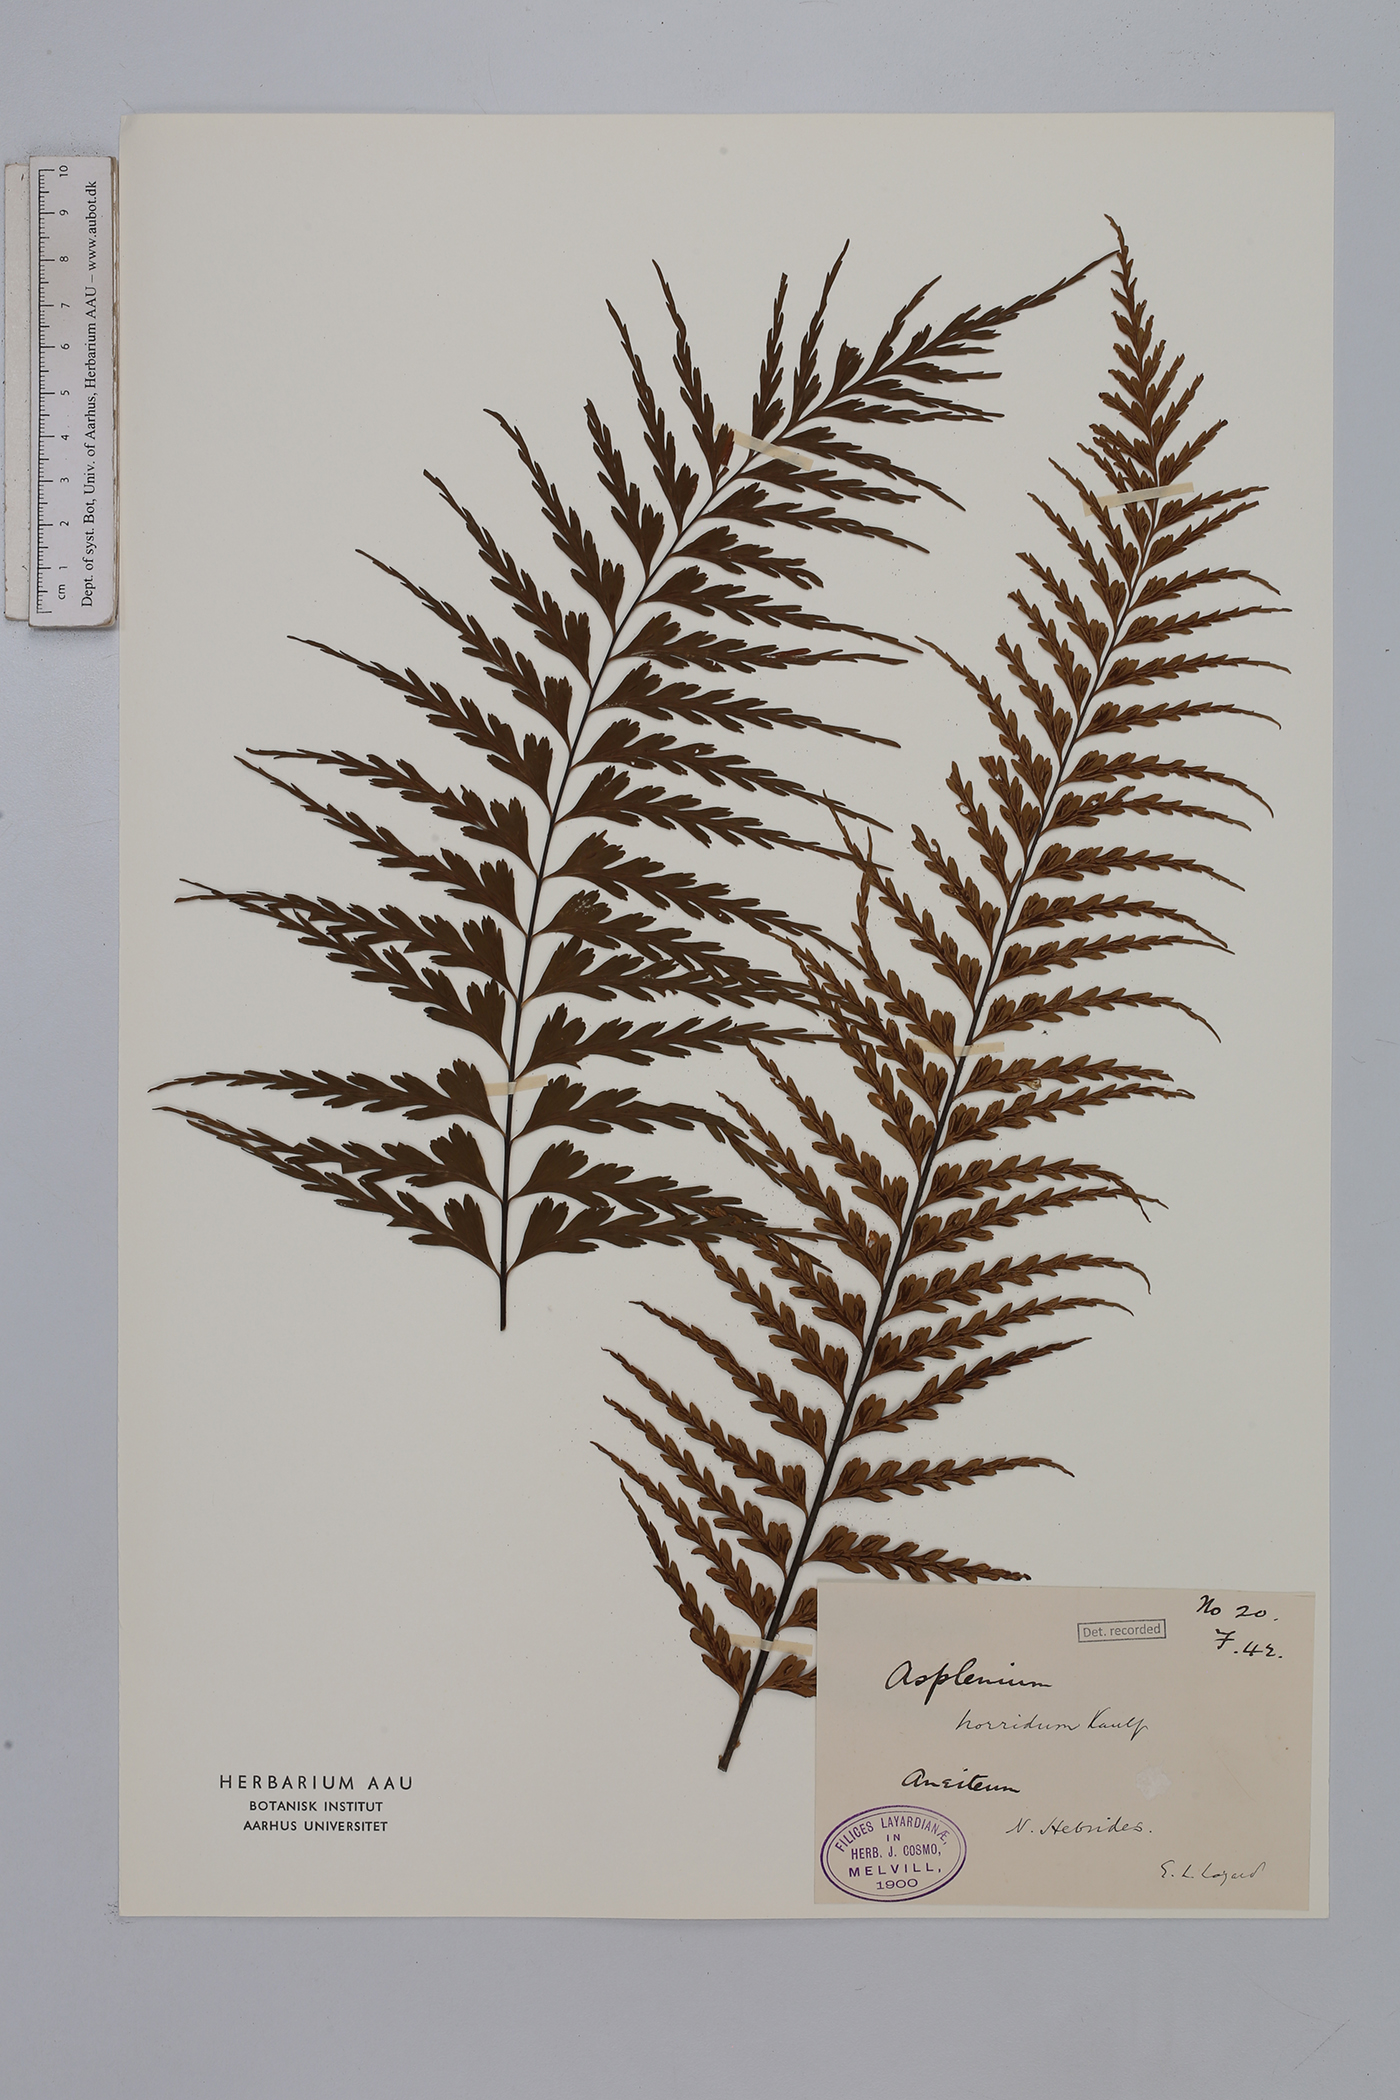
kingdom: Plantae
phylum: Tracheophyta
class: Polypodiopsida
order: Polypodiales
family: Aspleniaceae
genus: Asplenium
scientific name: Asplenium horridum
